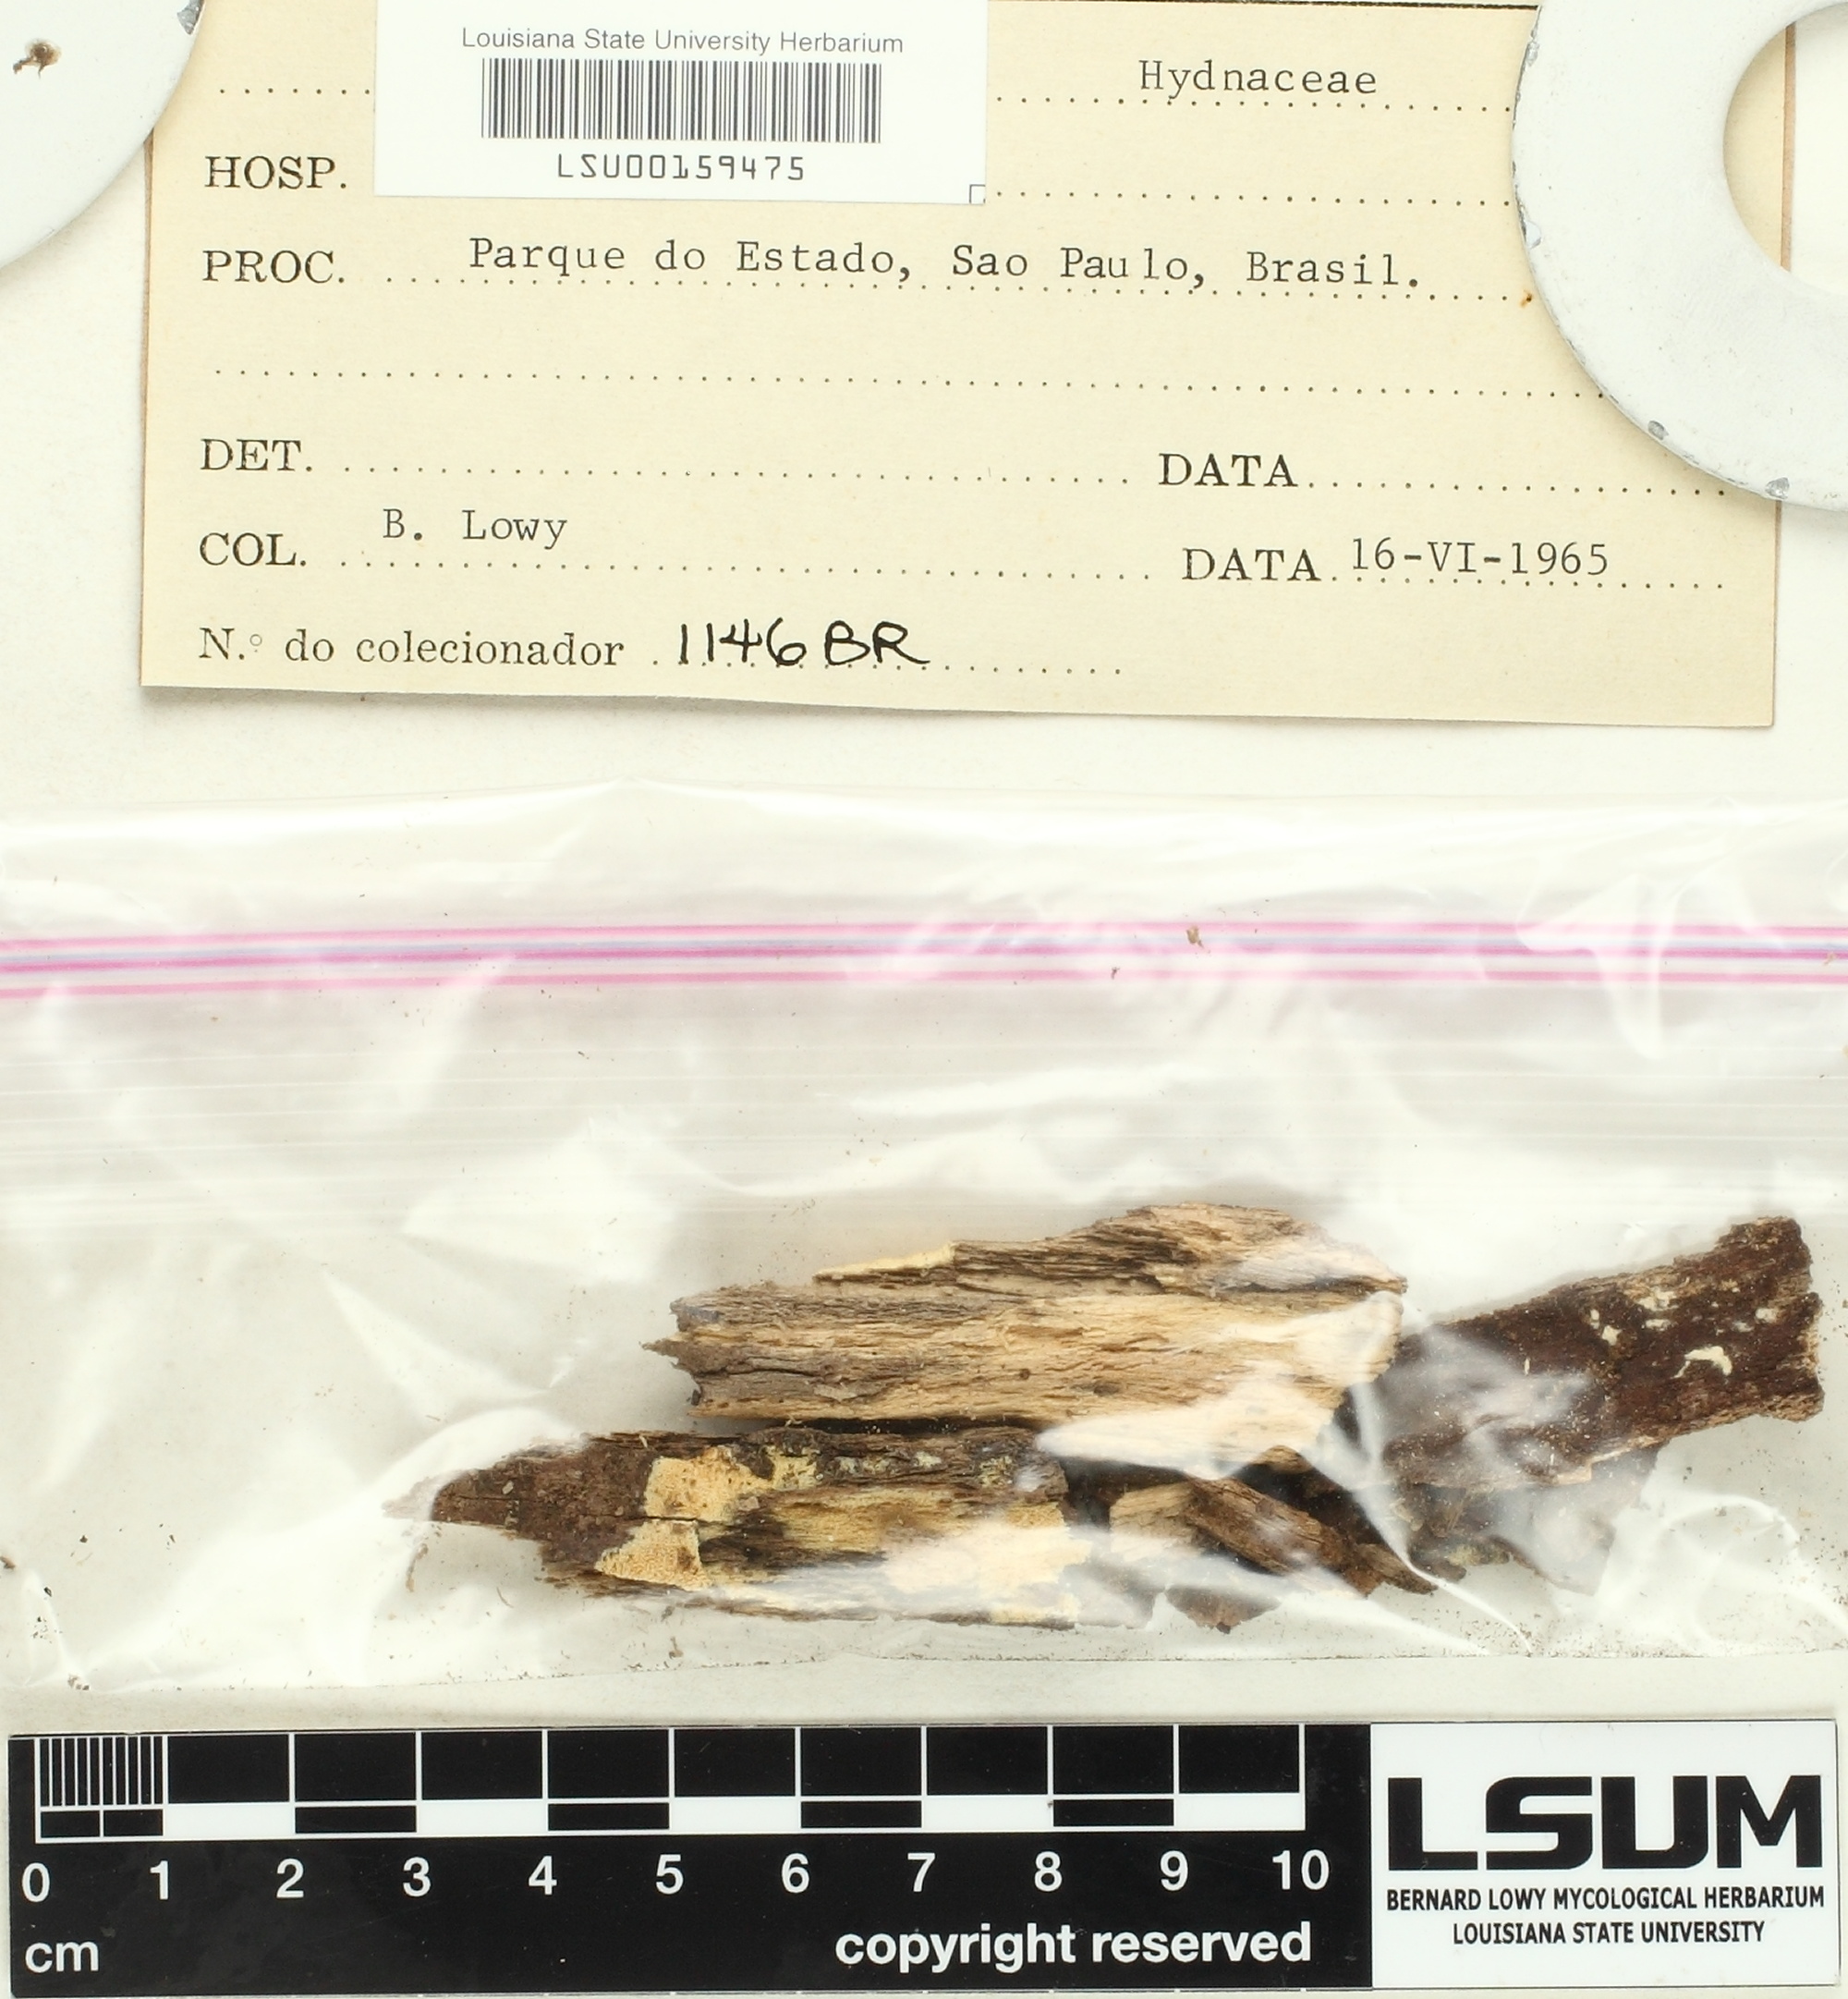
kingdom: Fungi
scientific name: Fungi
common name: Fungi
